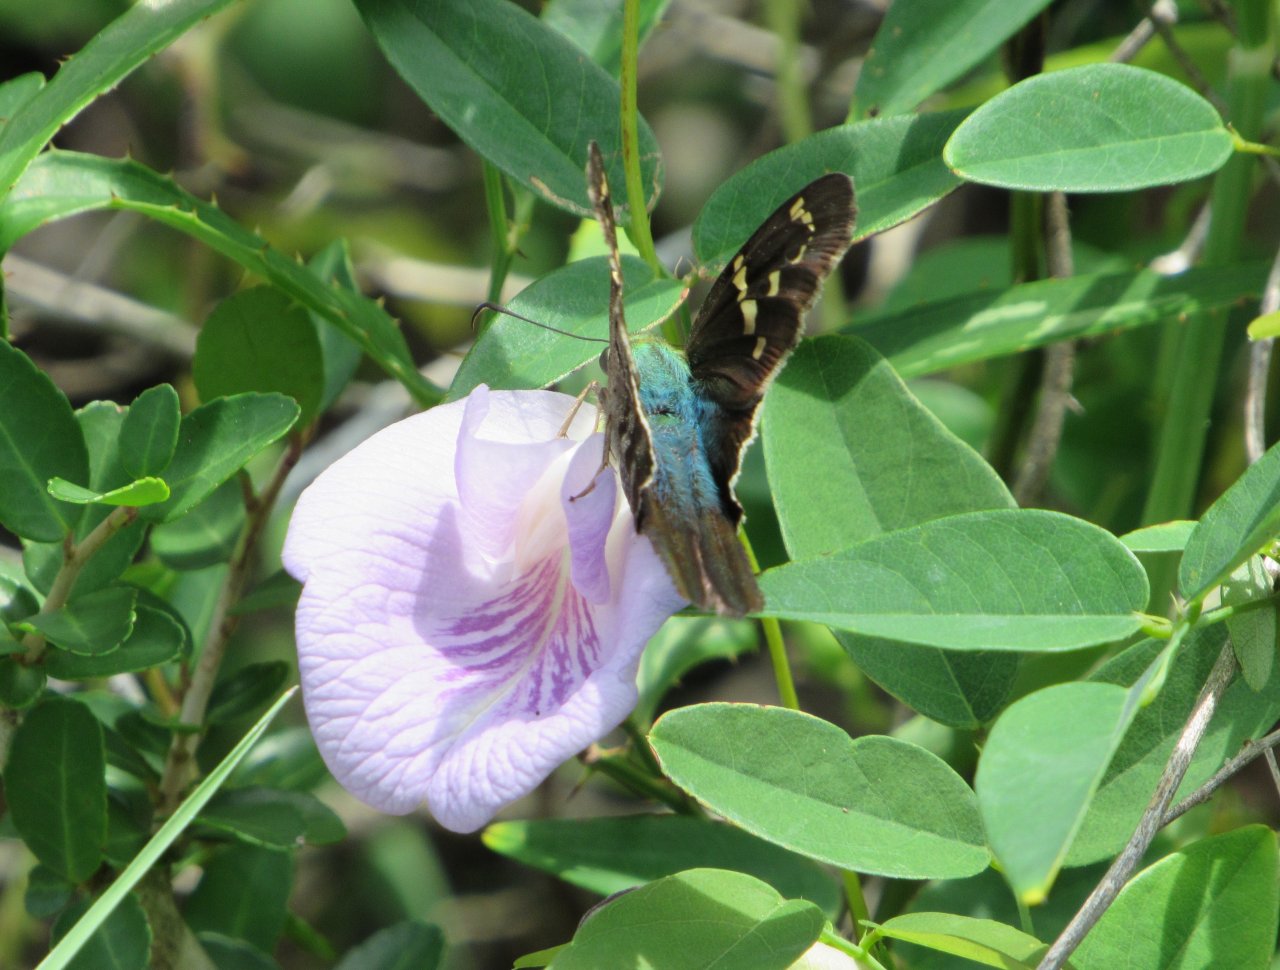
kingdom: Animalia
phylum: Arthropoda
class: Insecta
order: Lepidoptera
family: Hesperiidae
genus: Urbanus
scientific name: Urbanus proteus
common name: Long-tailed Skipper
